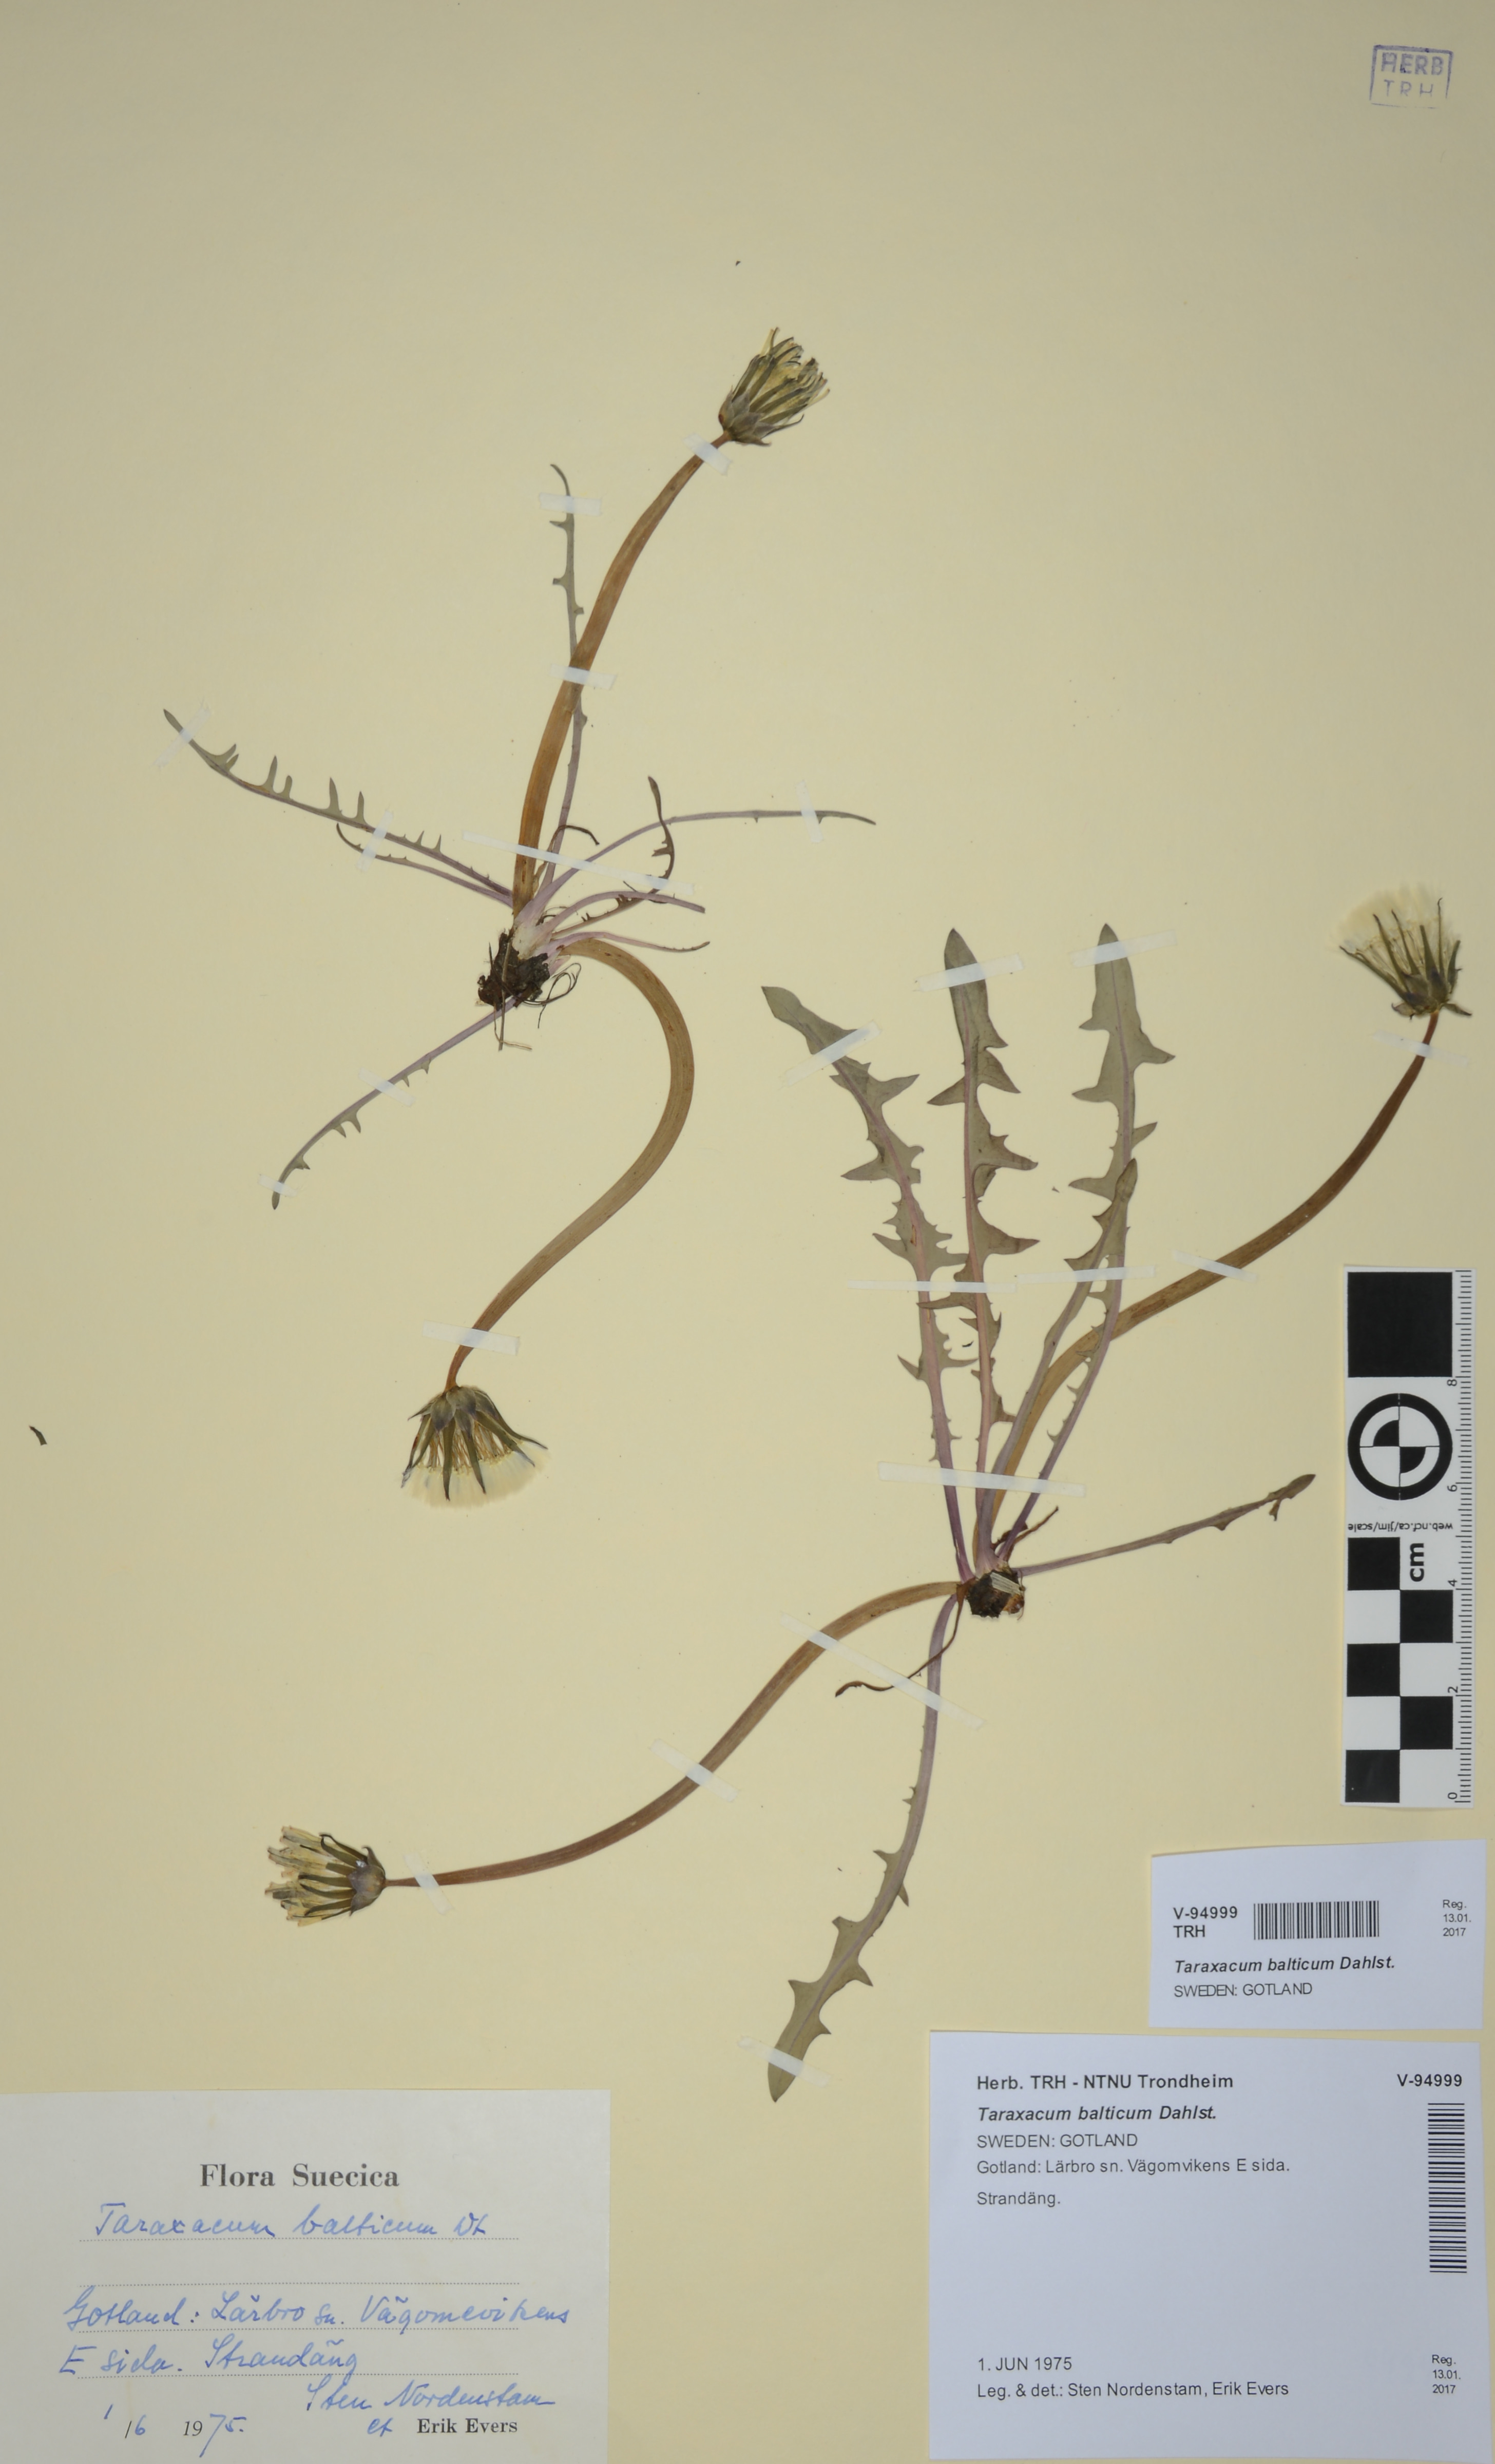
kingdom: Plantae
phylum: Tracheophyta
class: Magnoliopsida
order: Asterales
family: Asteraceae
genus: Taraxacum
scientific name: Taraxacum balticum
